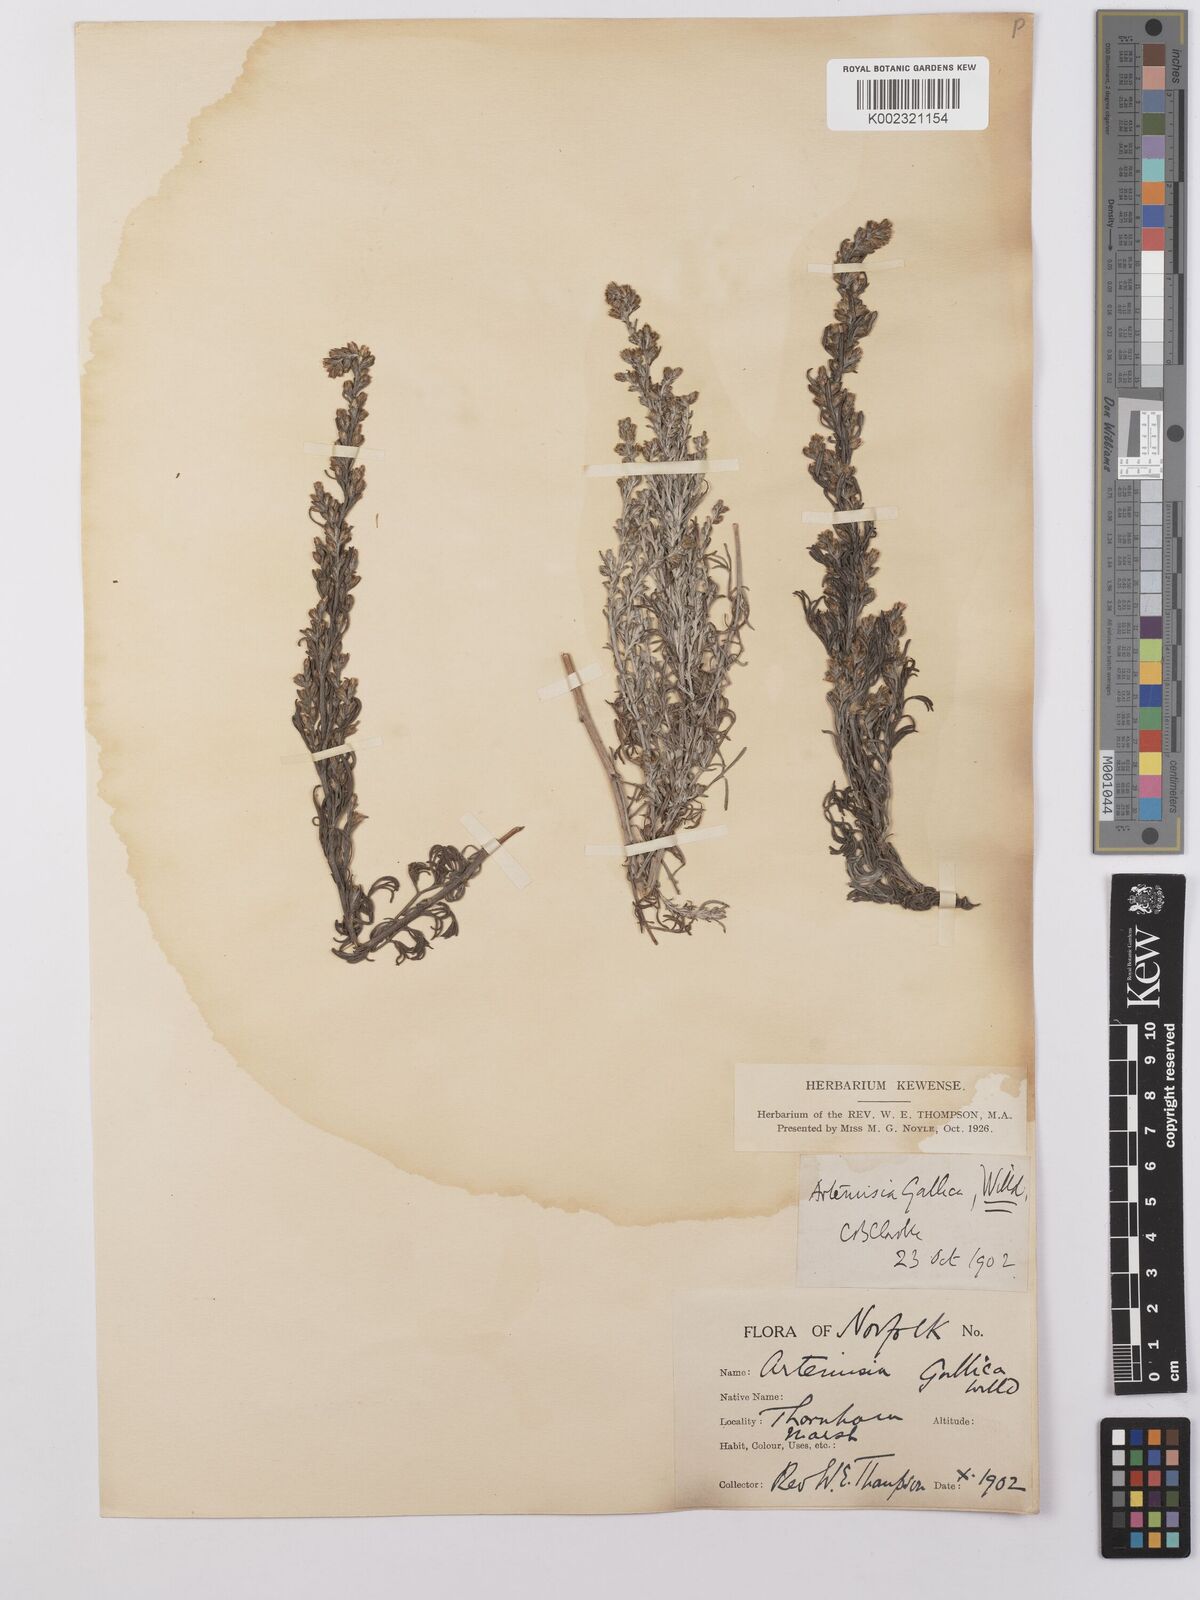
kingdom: Plantae
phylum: Tracheophyta
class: Magnoliopsida
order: Asterales
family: Asteraceae
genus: Artemisia
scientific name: Artemisia maritima
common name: Wormseed
